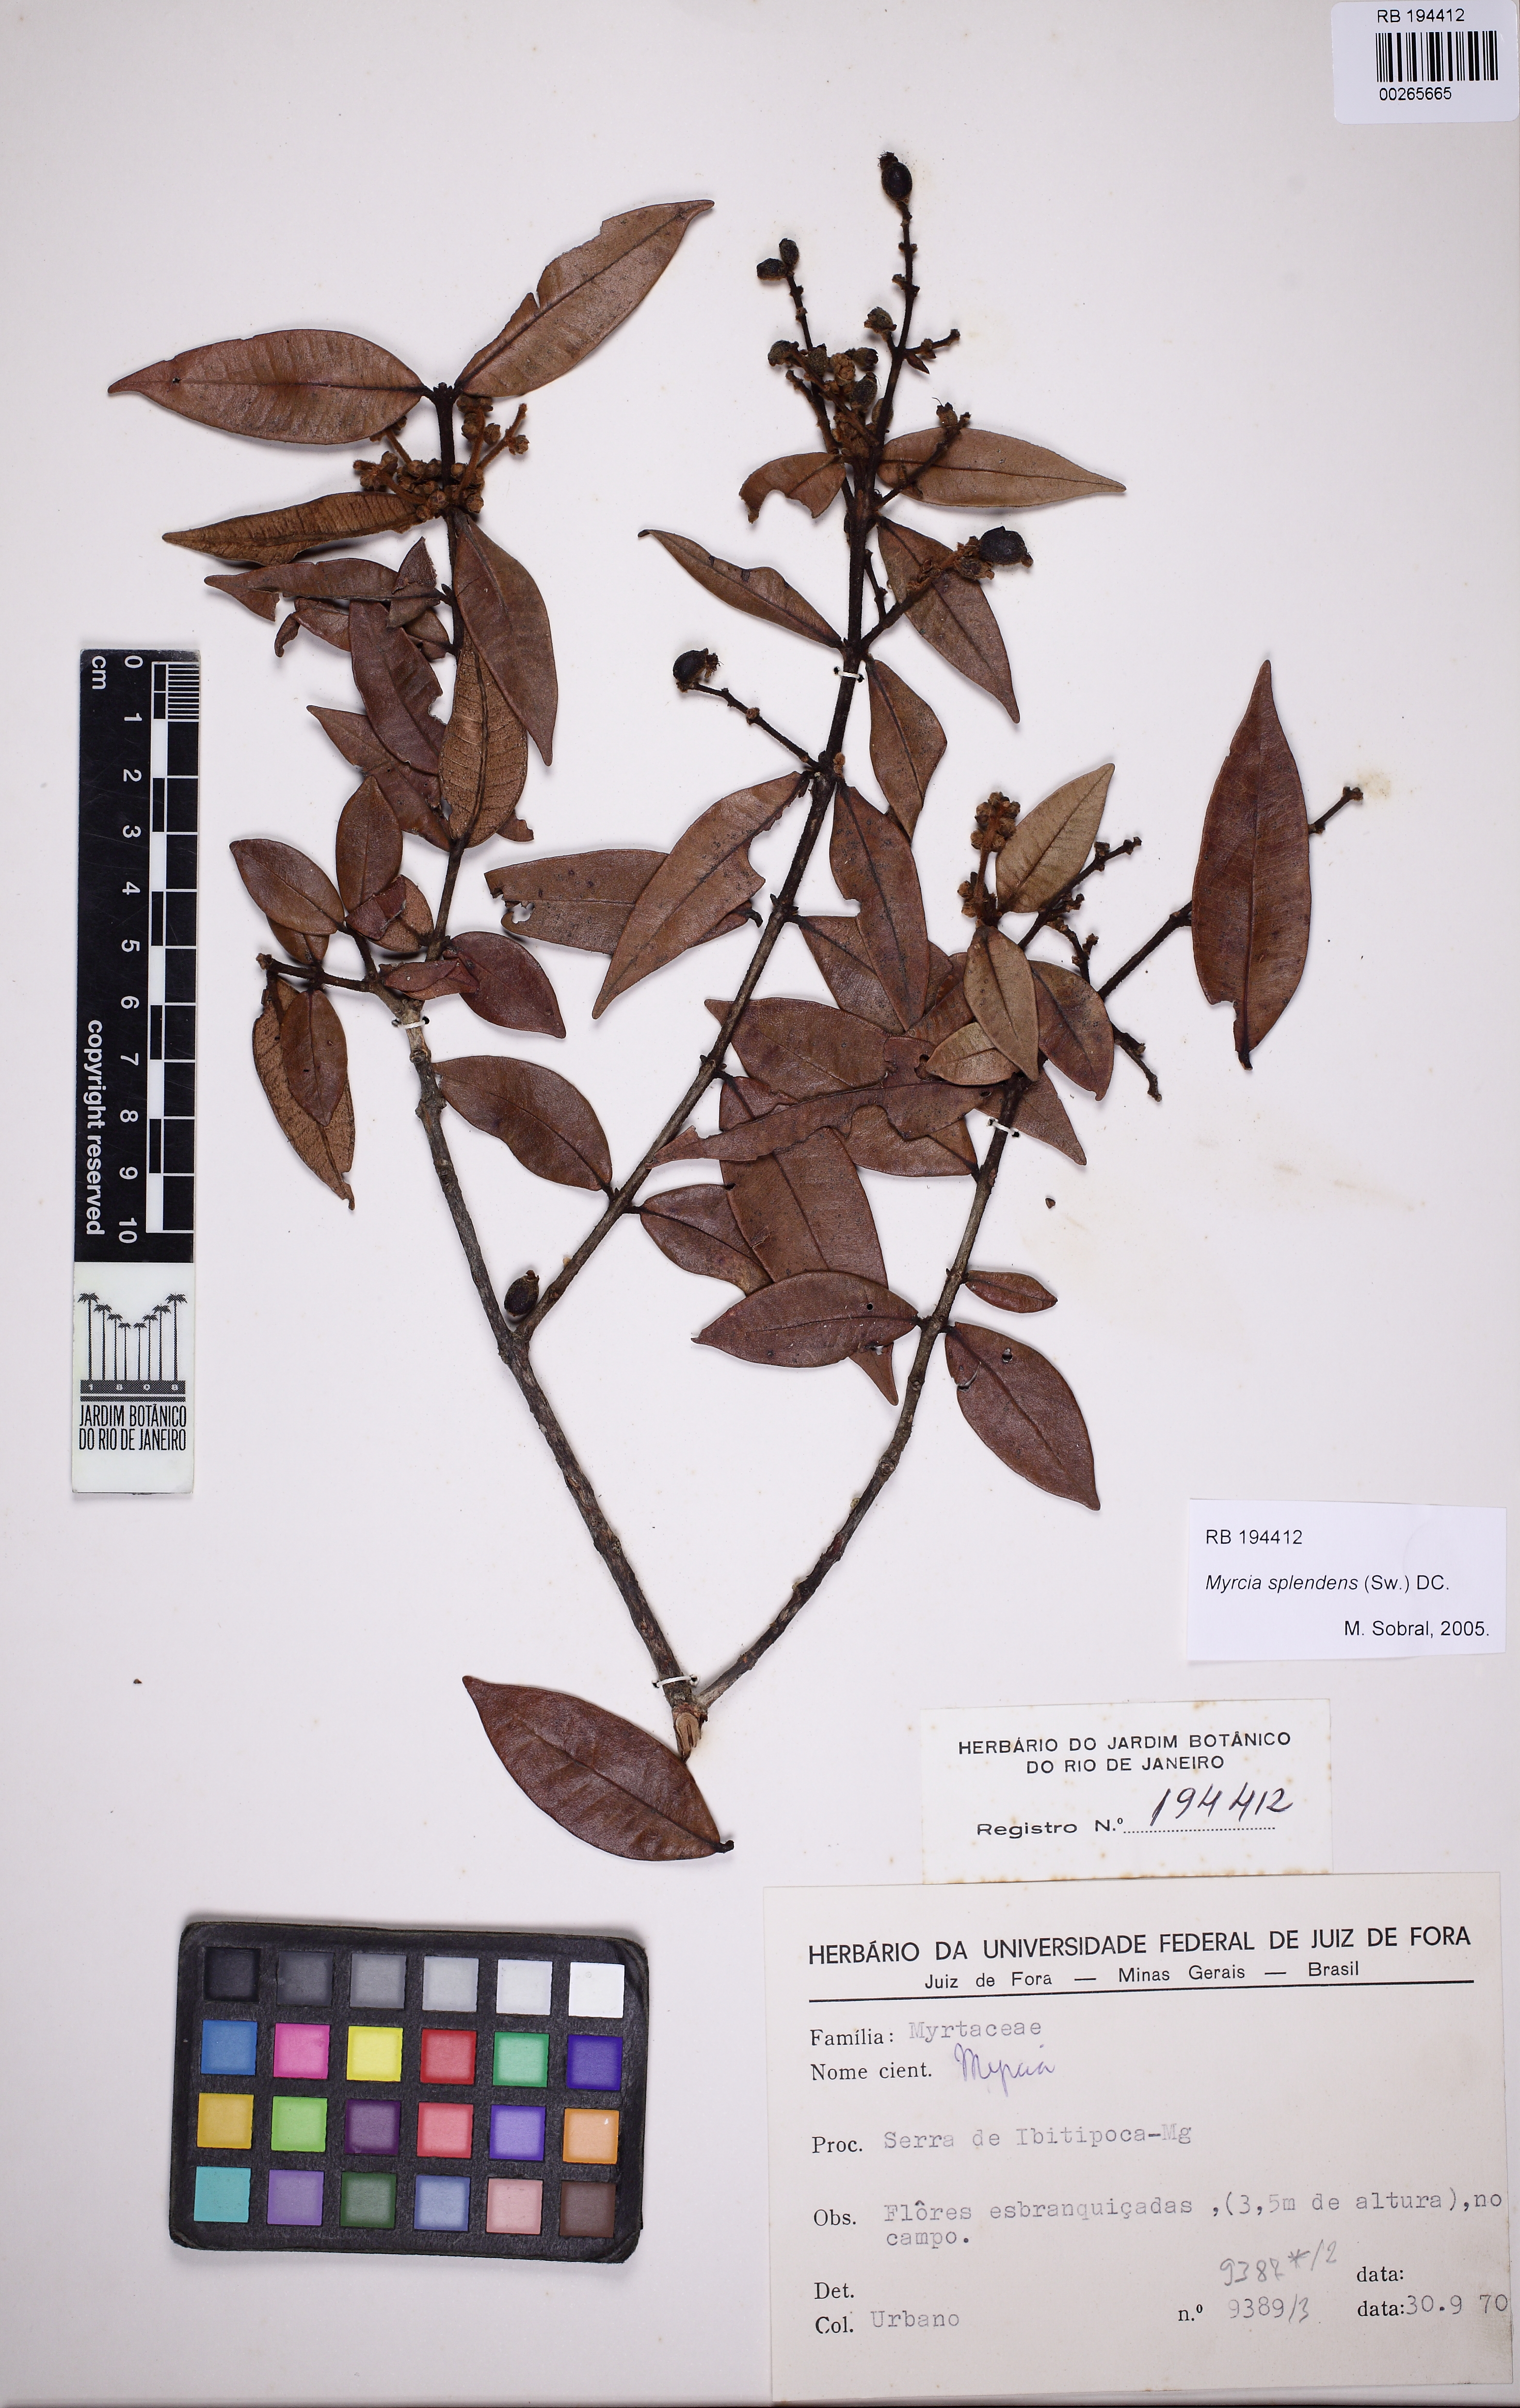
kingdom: Plantae
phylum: Tracheophyta
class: Magnoliopsida
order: Myrtales
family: Myrtaceae
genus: Myrcia
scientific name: Myrcia splendens
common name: Surinam cherry
